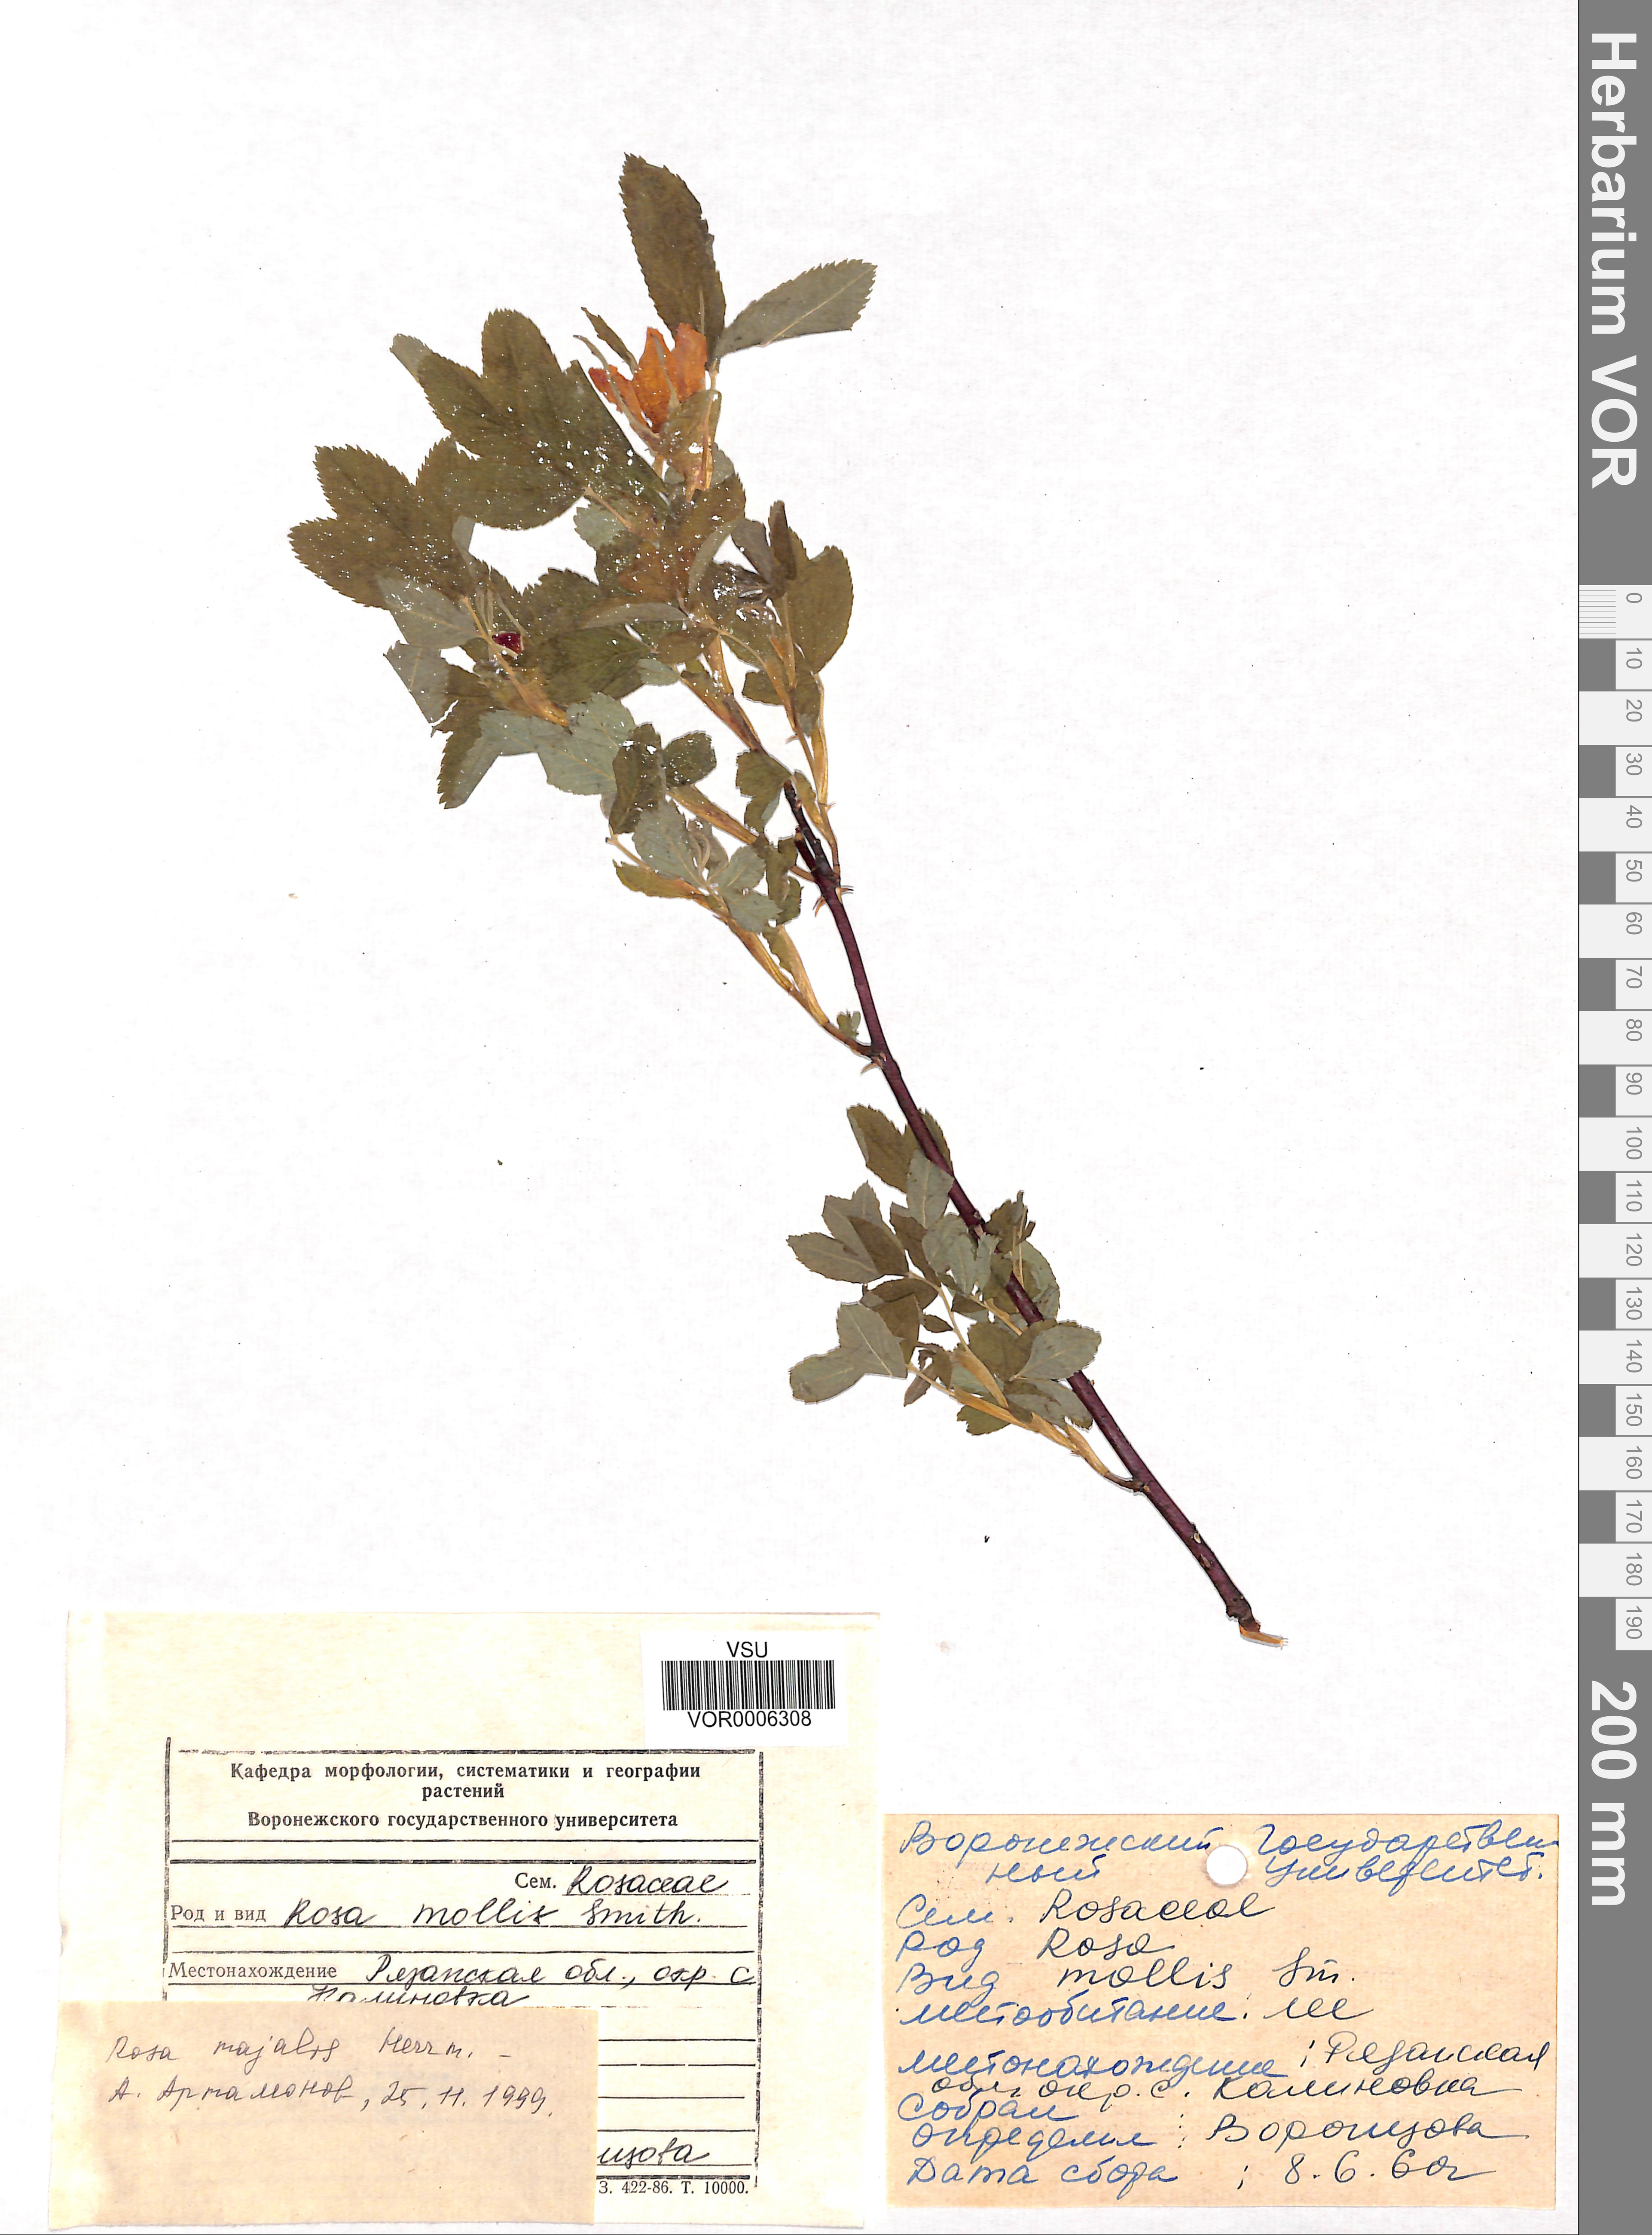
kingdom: Plantae
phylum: Tracheophyta
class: Magnoliopsida
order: Rosales
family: Rosaceae
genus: Rosa
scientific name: Rosa majalis
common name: Cinnamon rose
